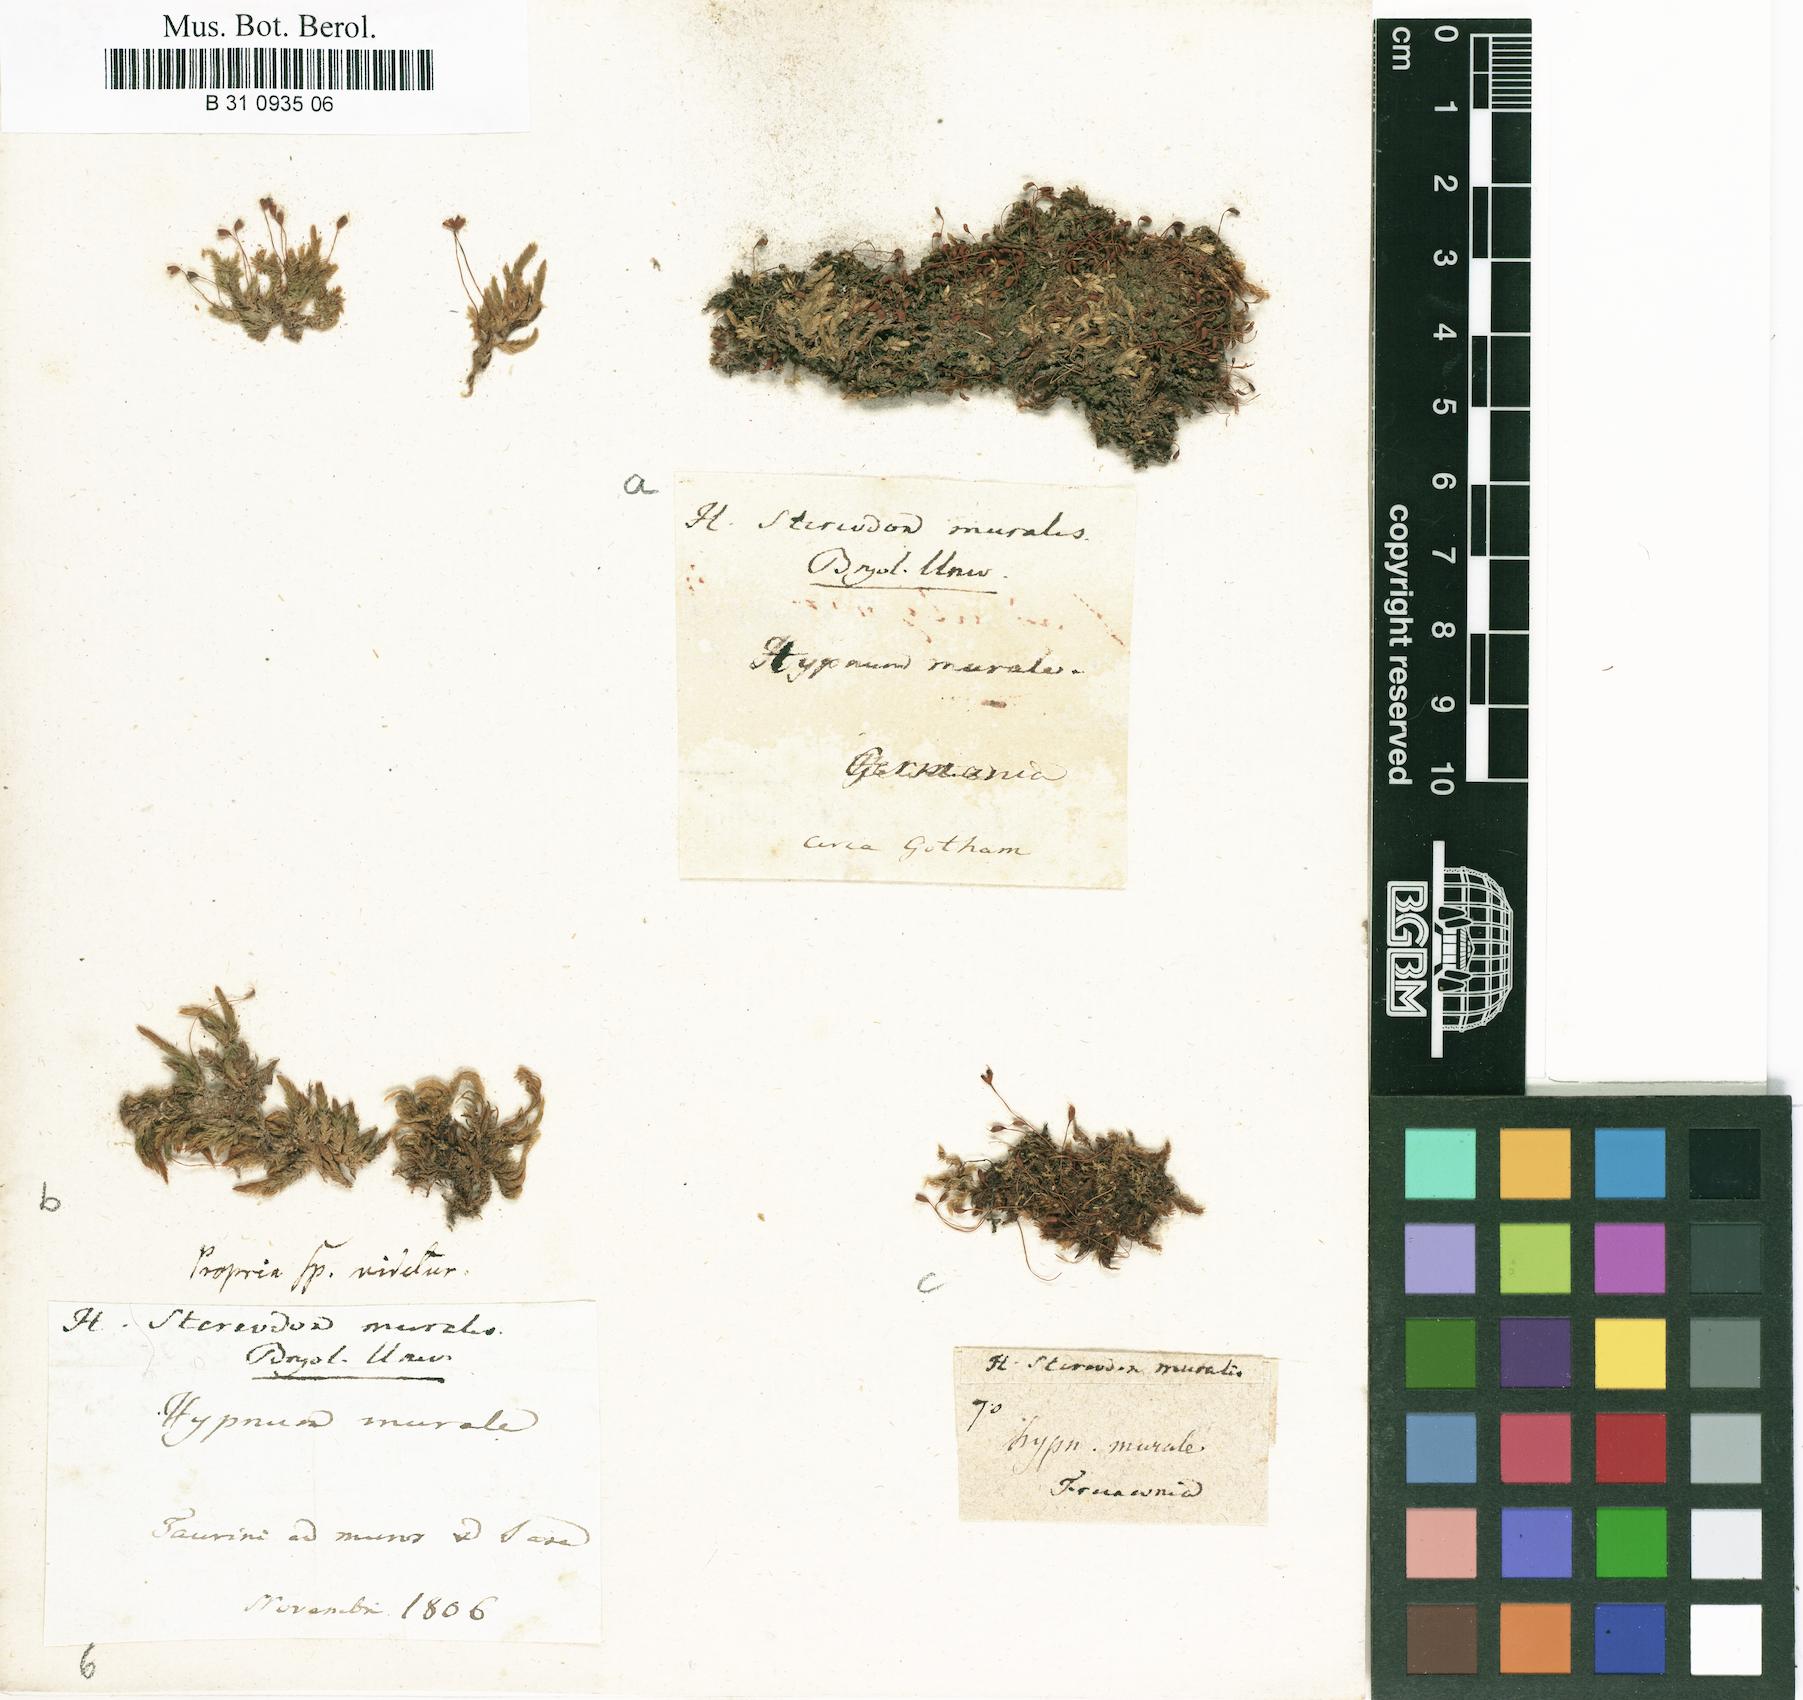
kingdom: Plantae
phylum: Bryophyta
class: Bryopsida
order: Hypnales
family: Brachytheciaceae
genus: Rhynchostegium
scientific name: Rhynchostegium murale
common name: Wall feather-moss
